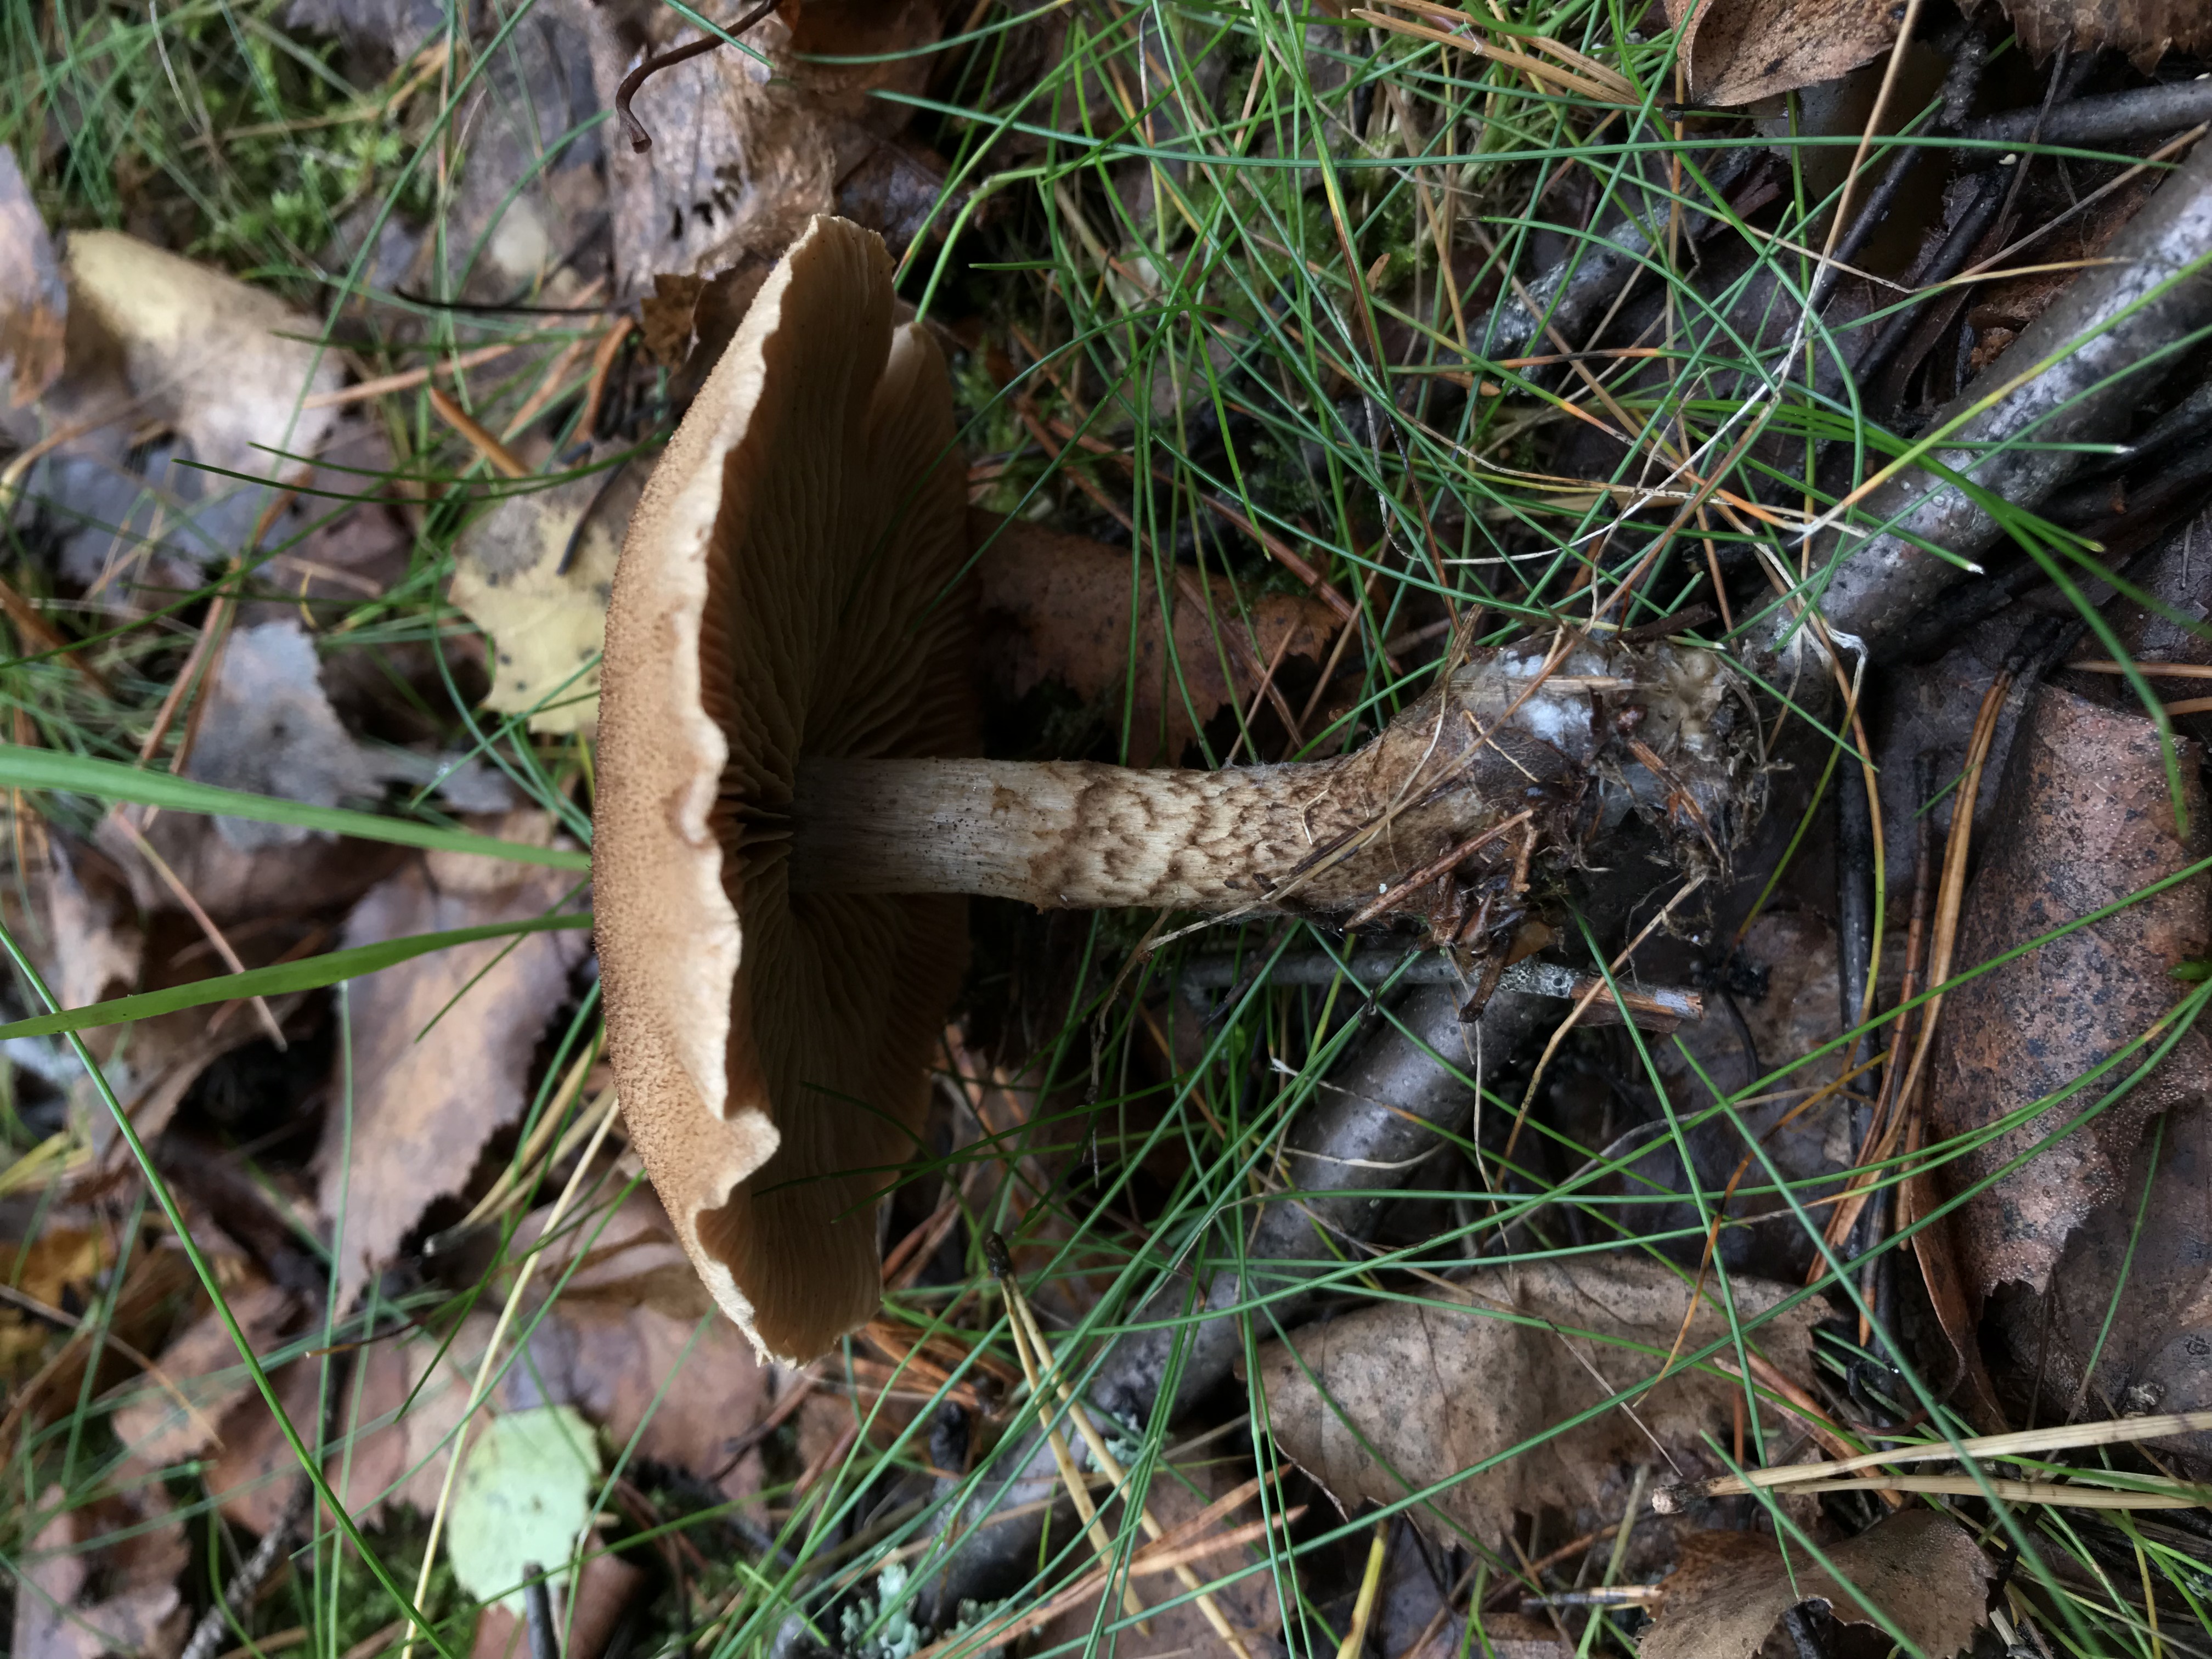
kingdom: Fungi
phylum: Basidiomycota
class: Agaricomycetes
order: Agaricales
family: Cortinariaceae
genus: Cortinarius
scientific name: Cortinarius pholideus
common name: Scaly webcap
